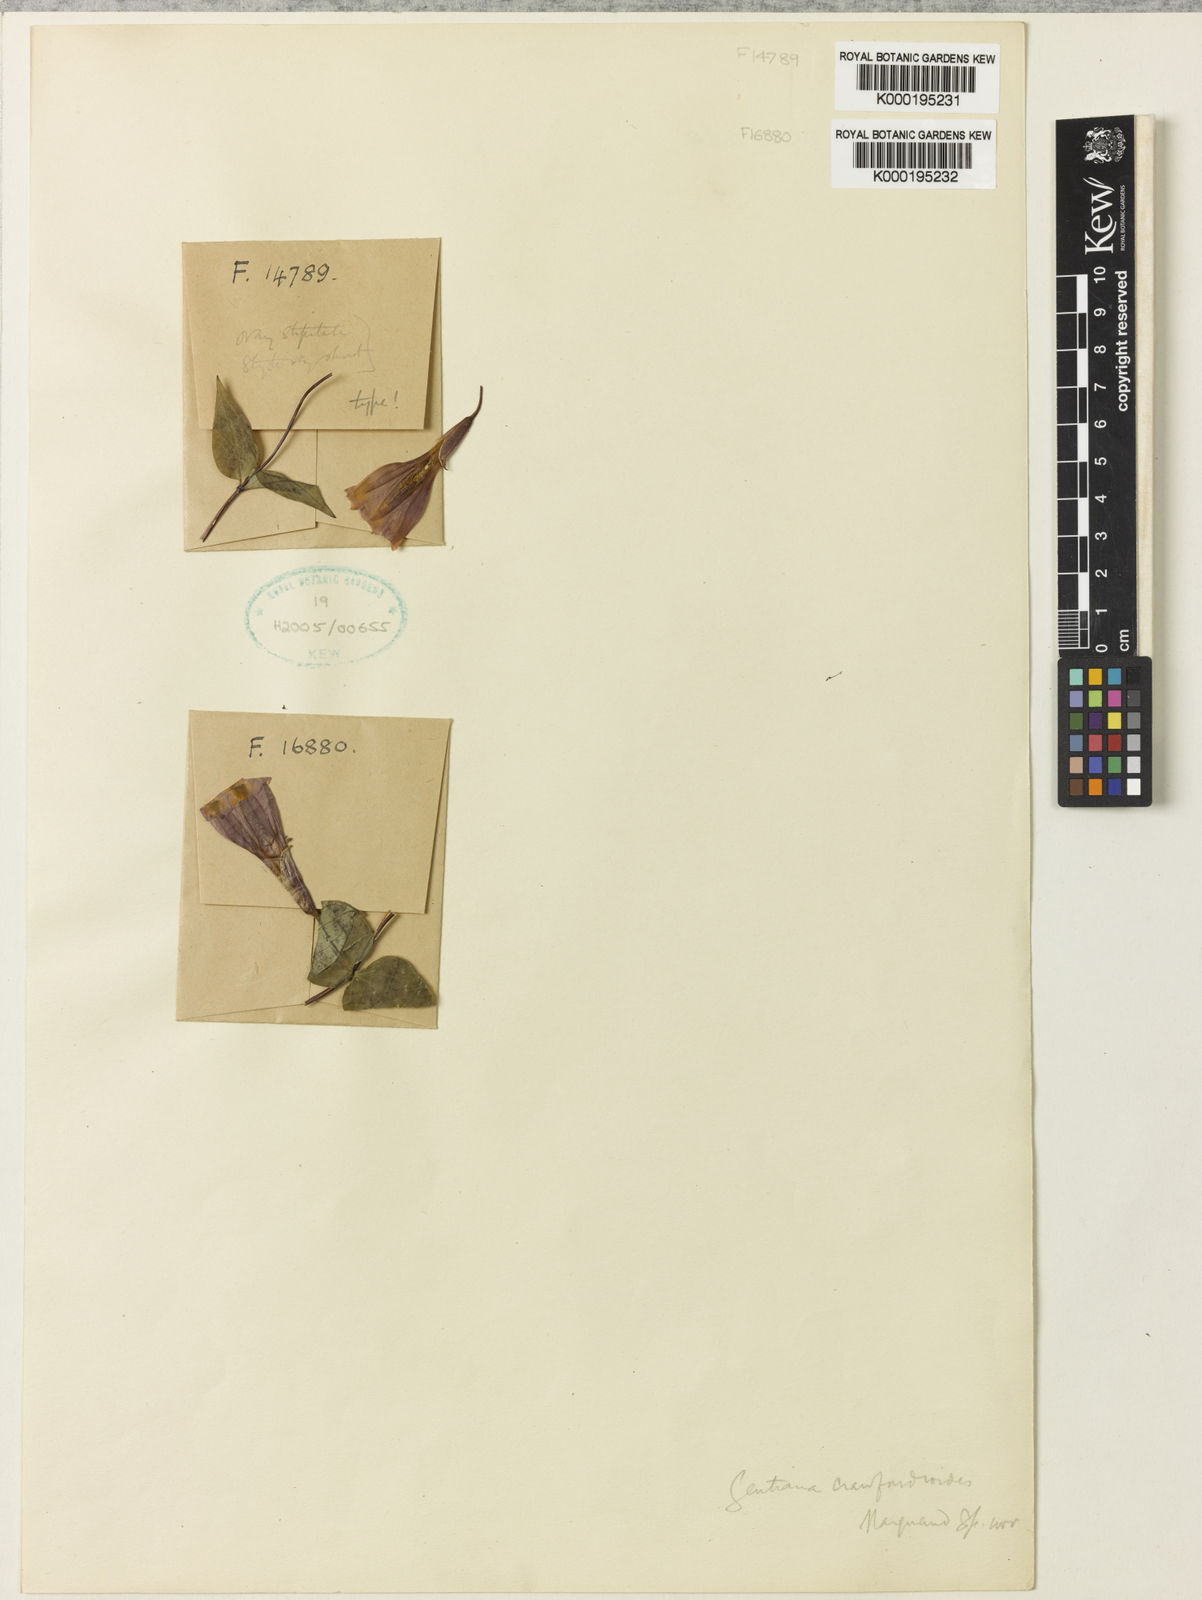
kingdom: Plantae
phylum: Tracheophyta
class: Magnoliopsida
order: Gentianales
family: Gentianaceae
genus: Crawfurdia
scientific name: Crawfurdia crawfurdioides
